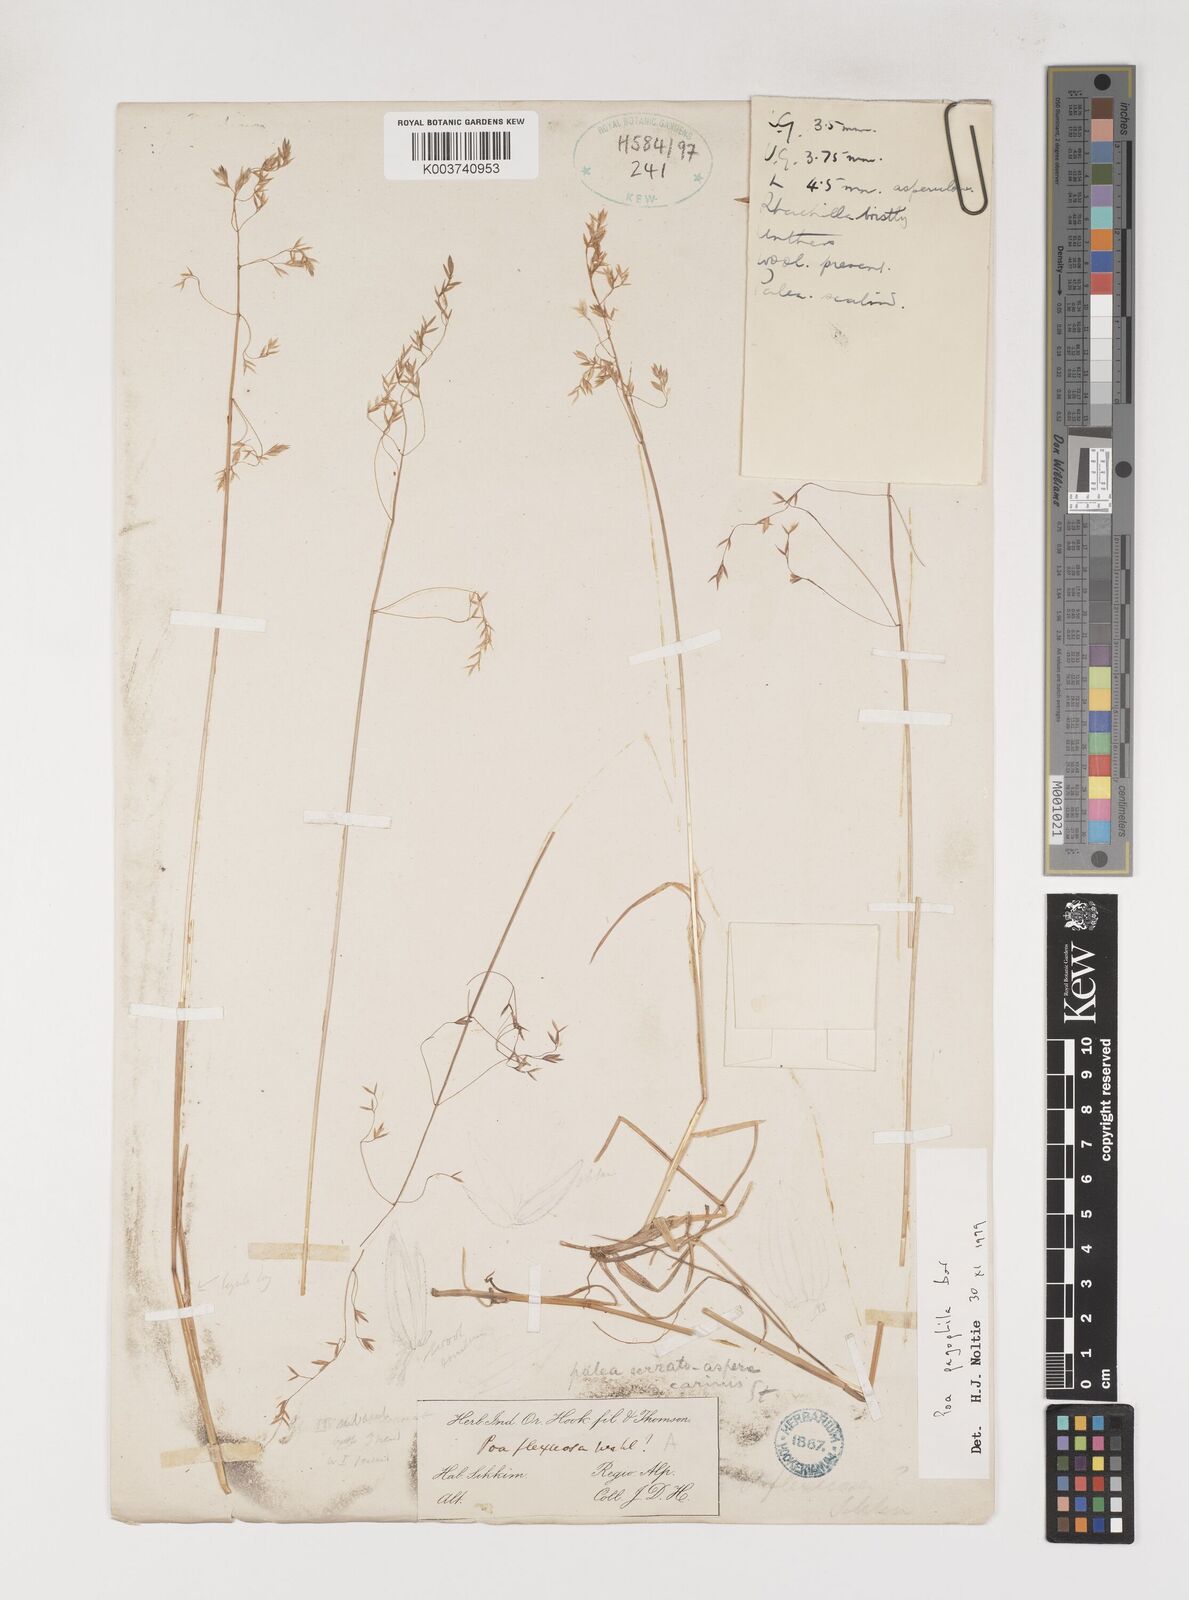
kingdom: Plantae
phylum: Tracheophyta
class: Liliopsida
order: Poales
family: Poaceae
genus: Poa
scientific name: Poa pagophila
